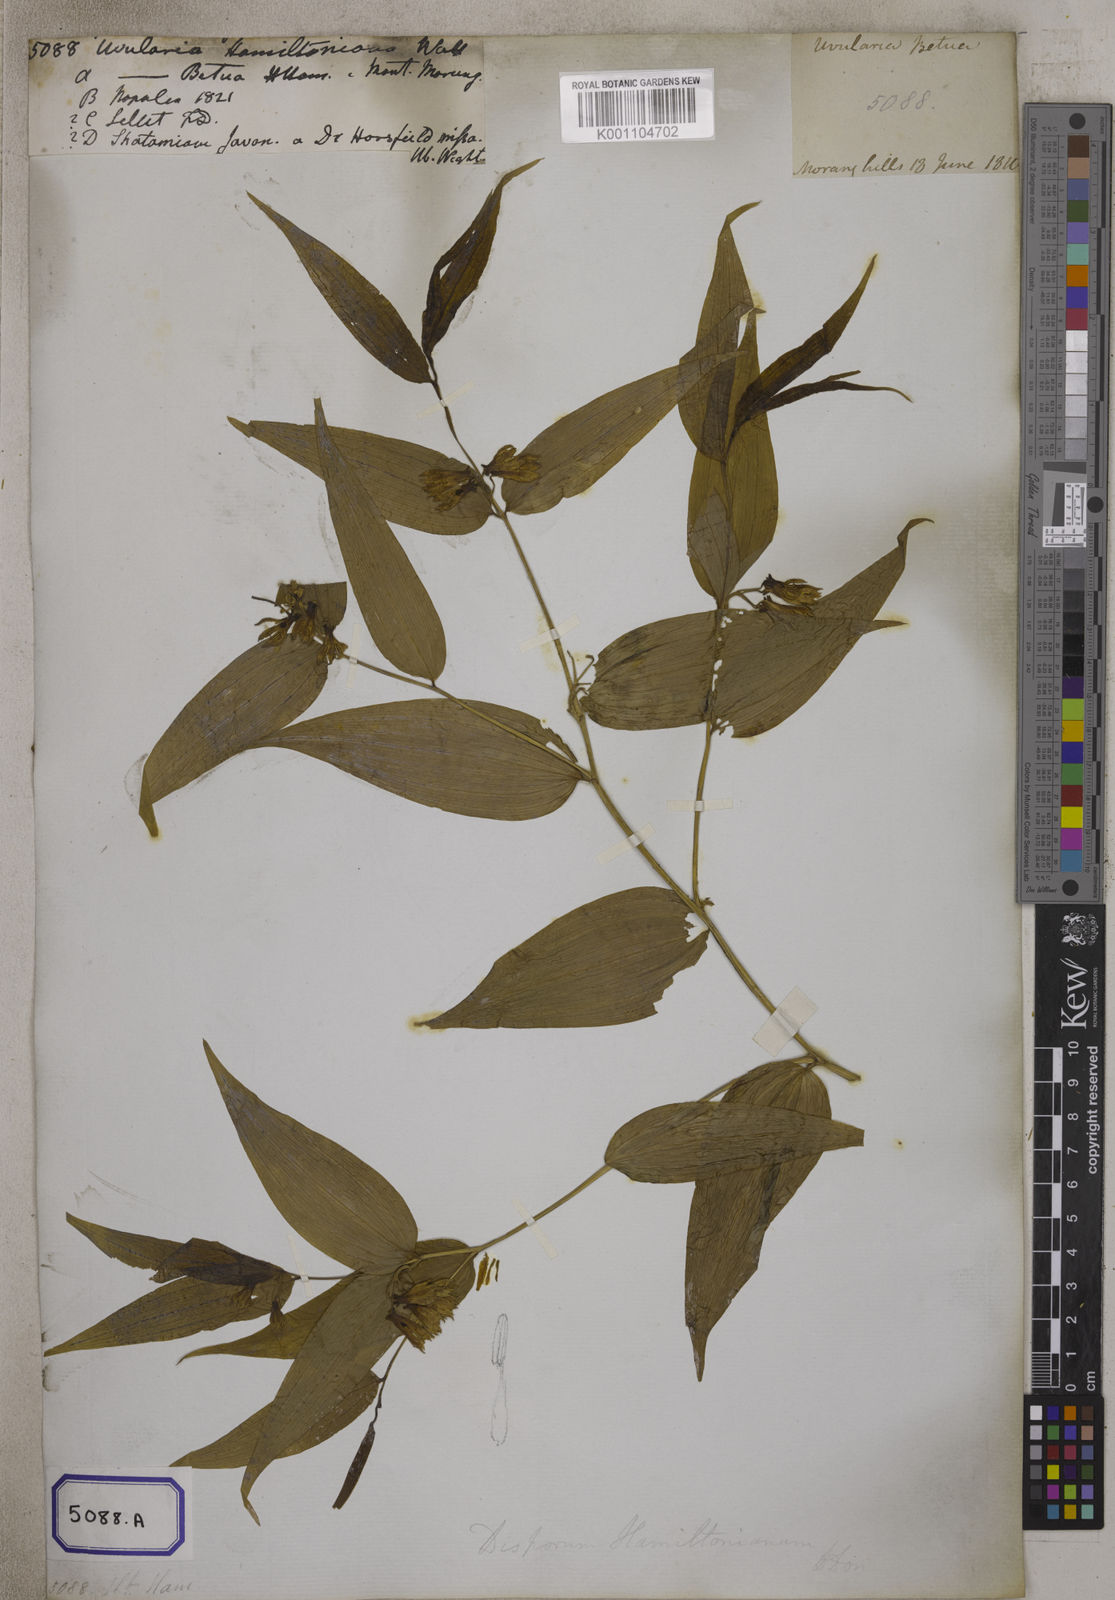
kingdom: Plantae
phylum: Tracheophyta
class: Liliopsida
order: Liliales
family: Colchicaceae
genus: Disporum
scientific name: Disporum calcaratum
